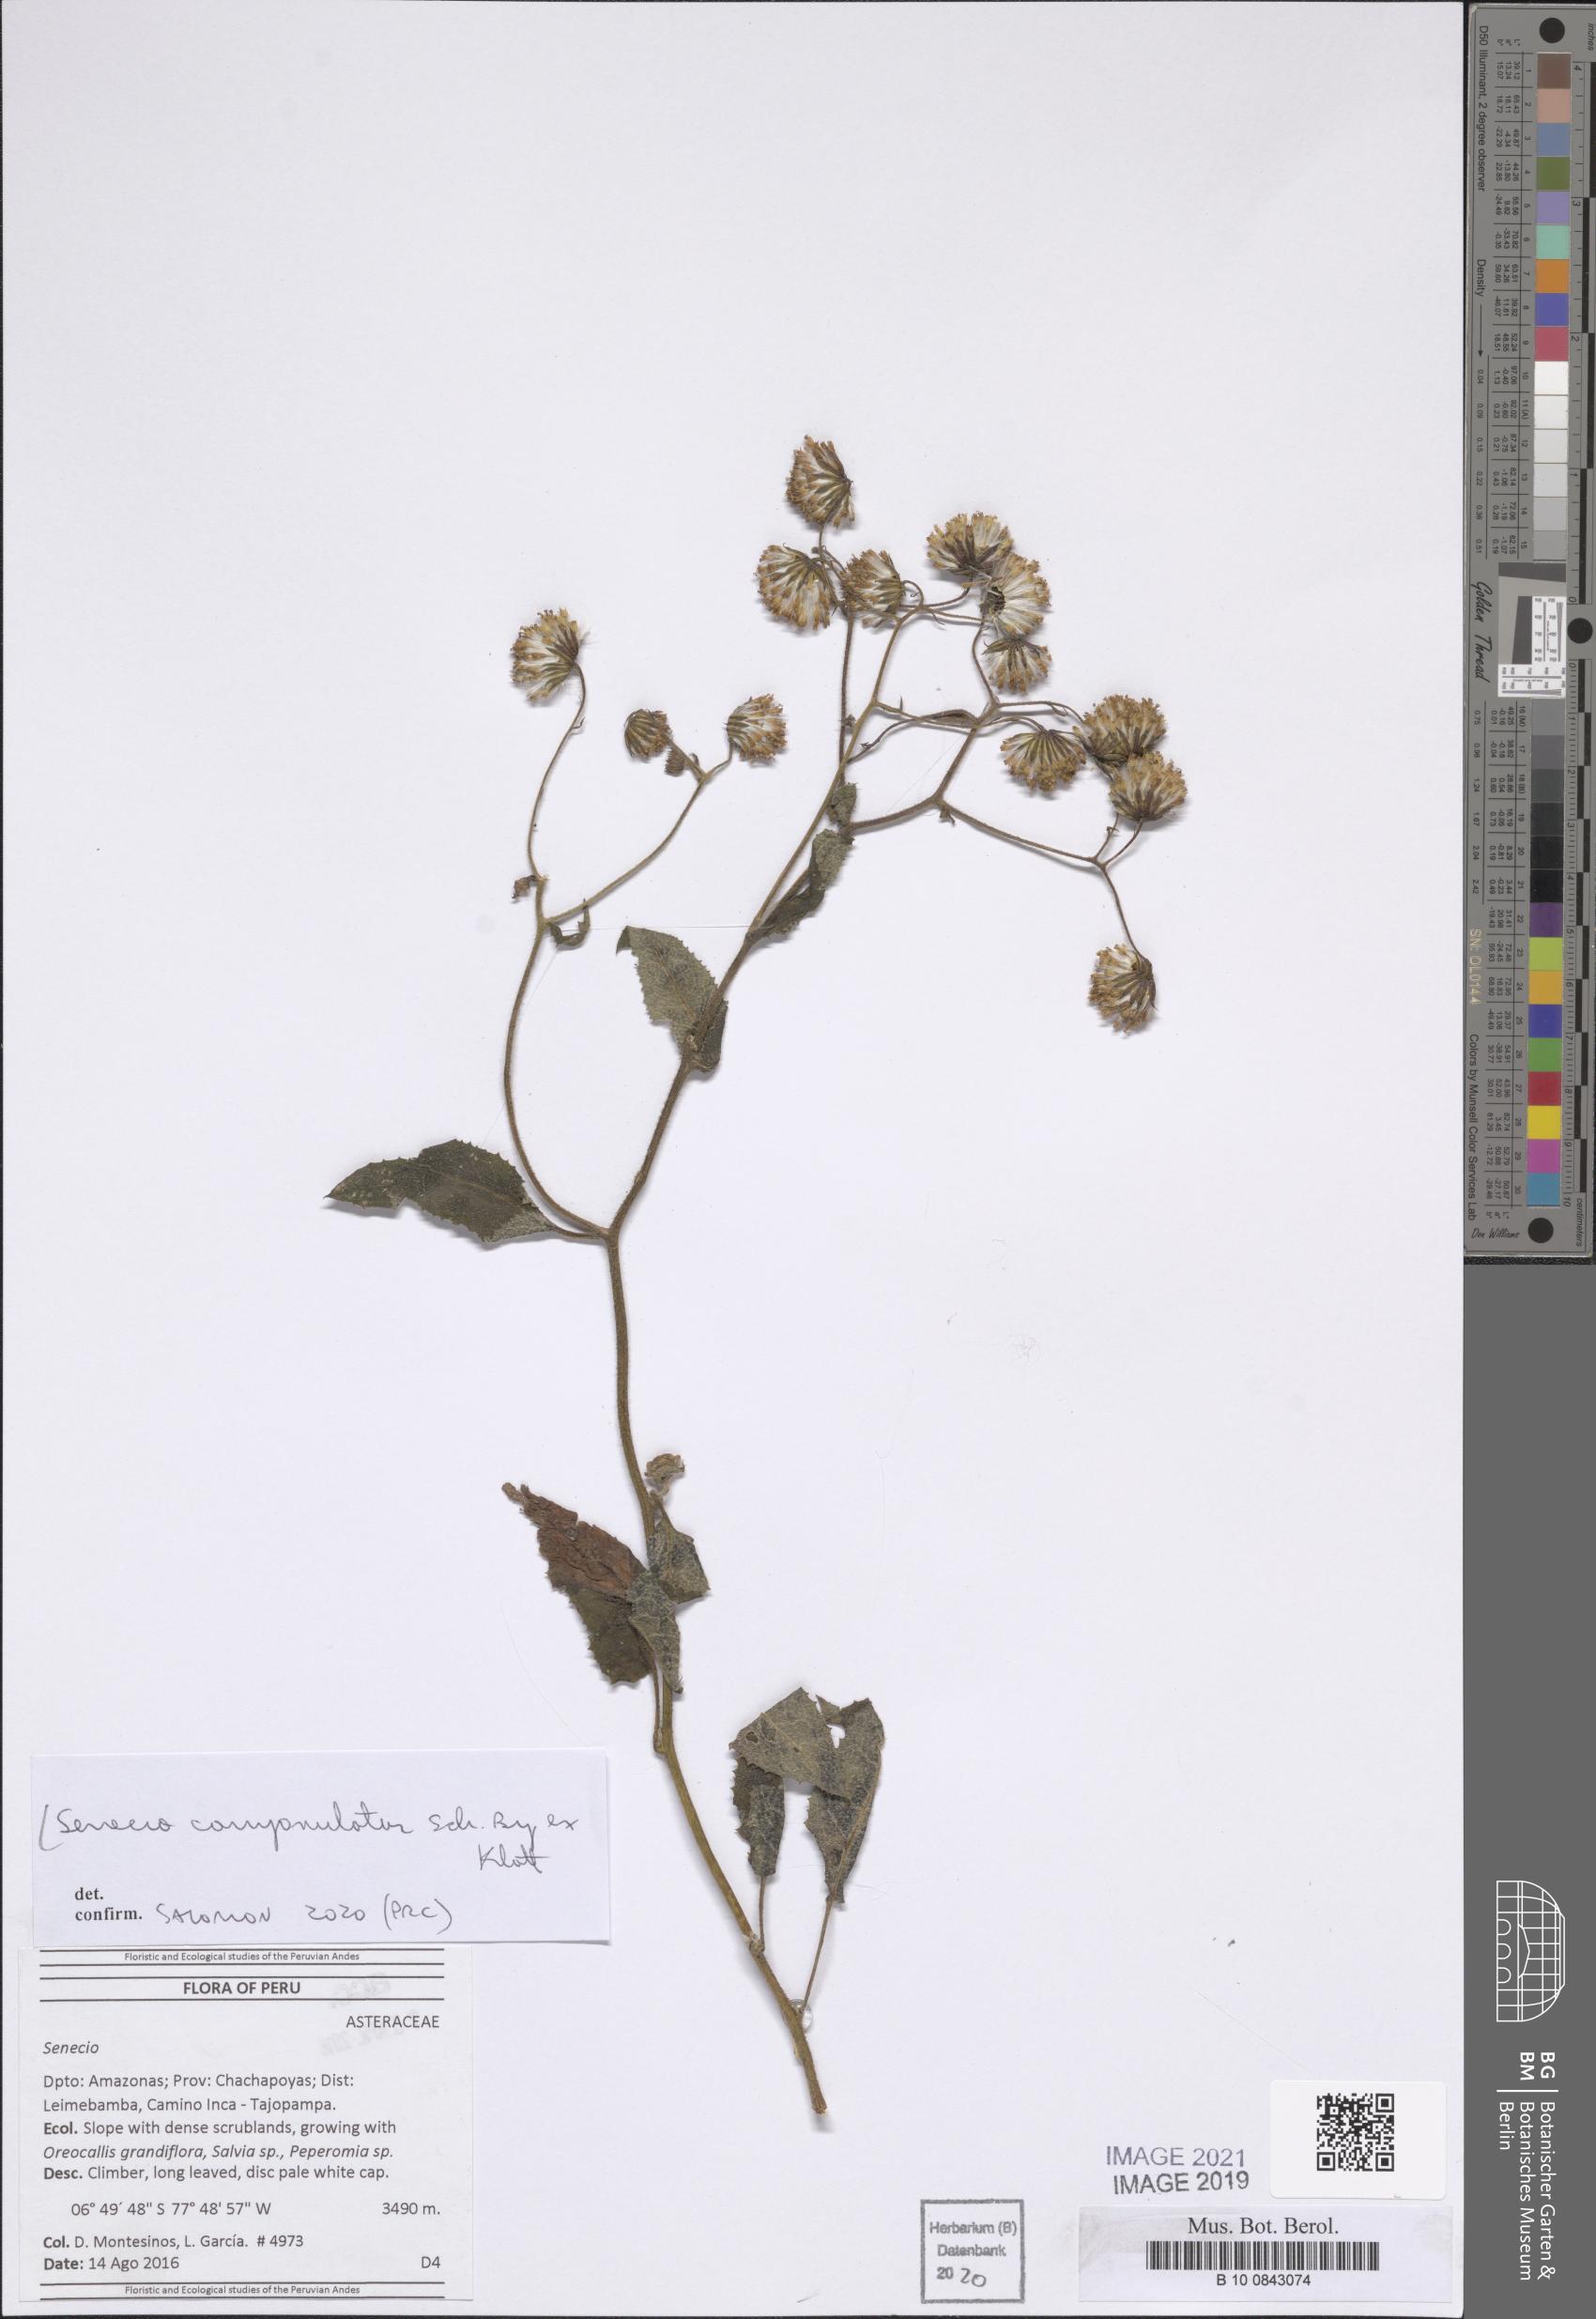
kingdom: Plantae
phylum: Tracheophyta
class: Magnoliopsida
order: Asterales
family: Asteraceae
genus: Cremanthodium
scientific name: Cremanthodium campanulatum
